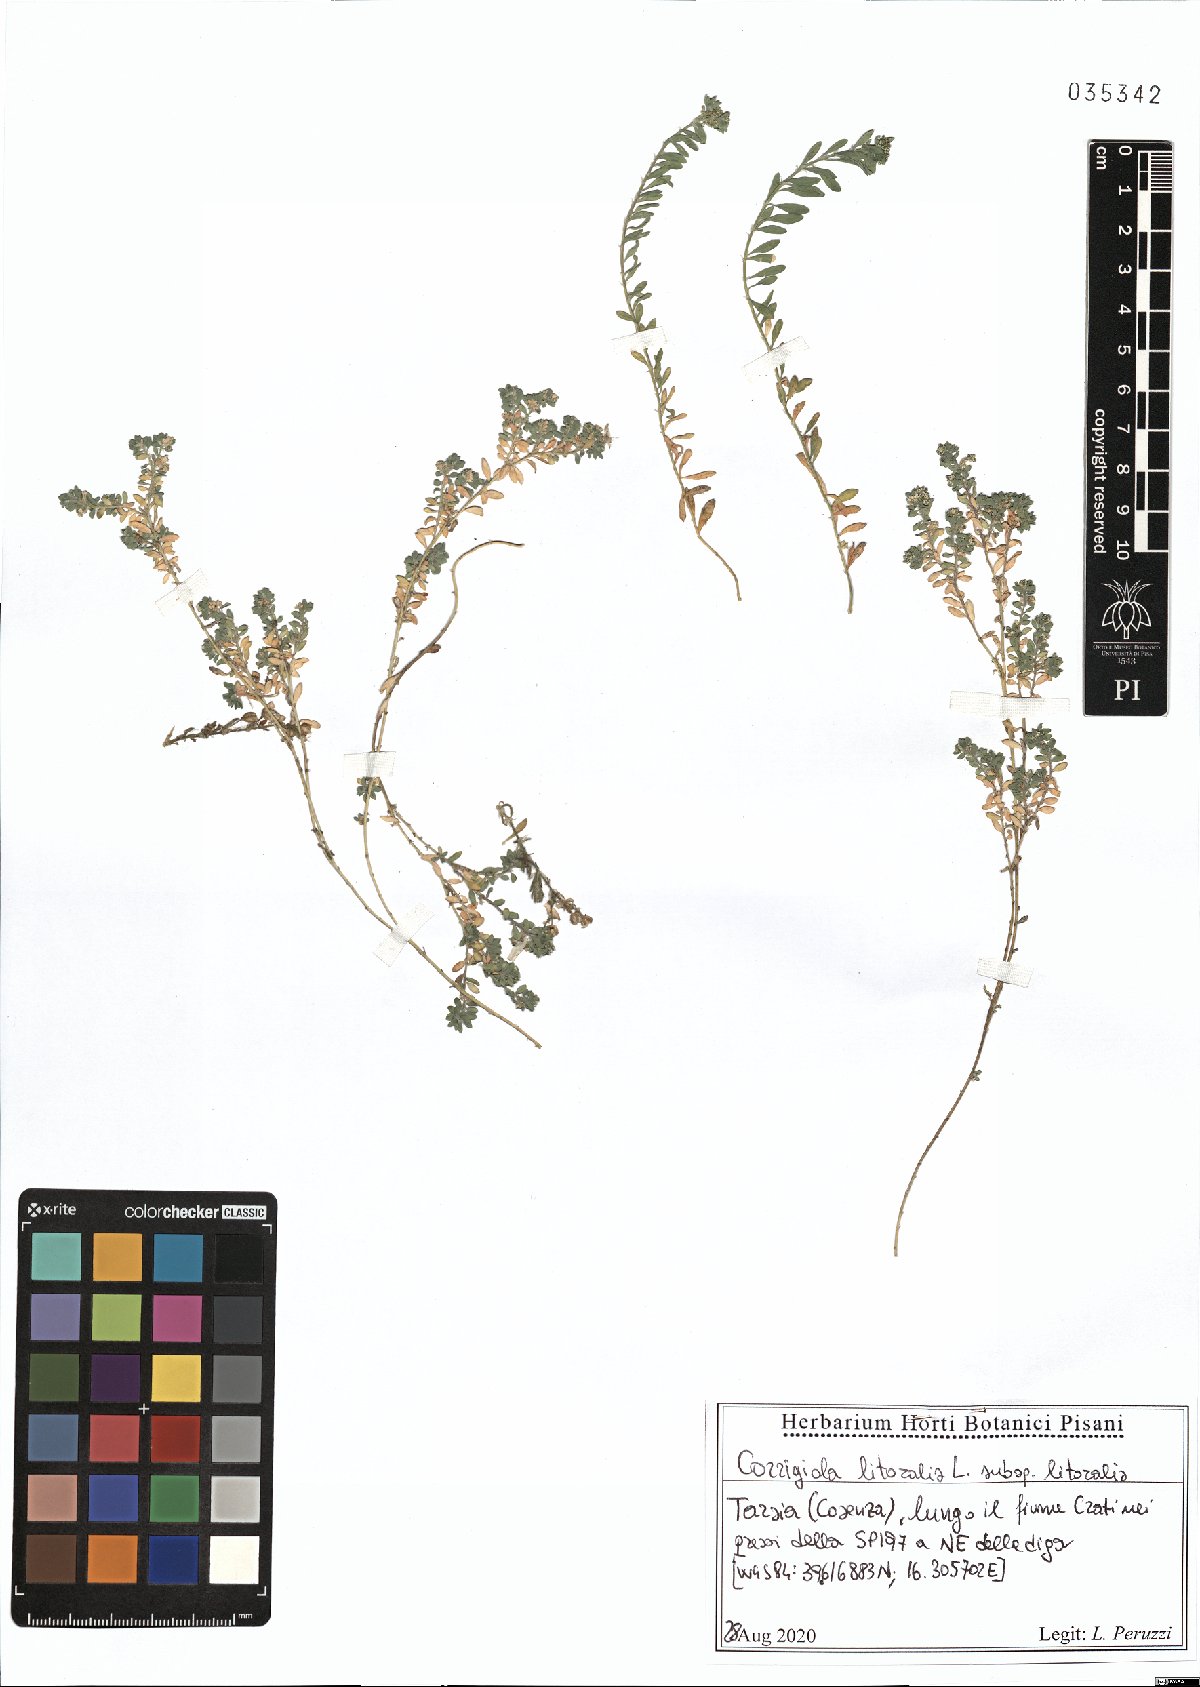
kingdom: Plantae
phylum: Tracheophyta
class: Magnoliopsida
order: Caryophyllales
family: Caryophyllaceae
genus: Corrigiola
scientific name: Corrigiola litoralis
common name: Strapwort
